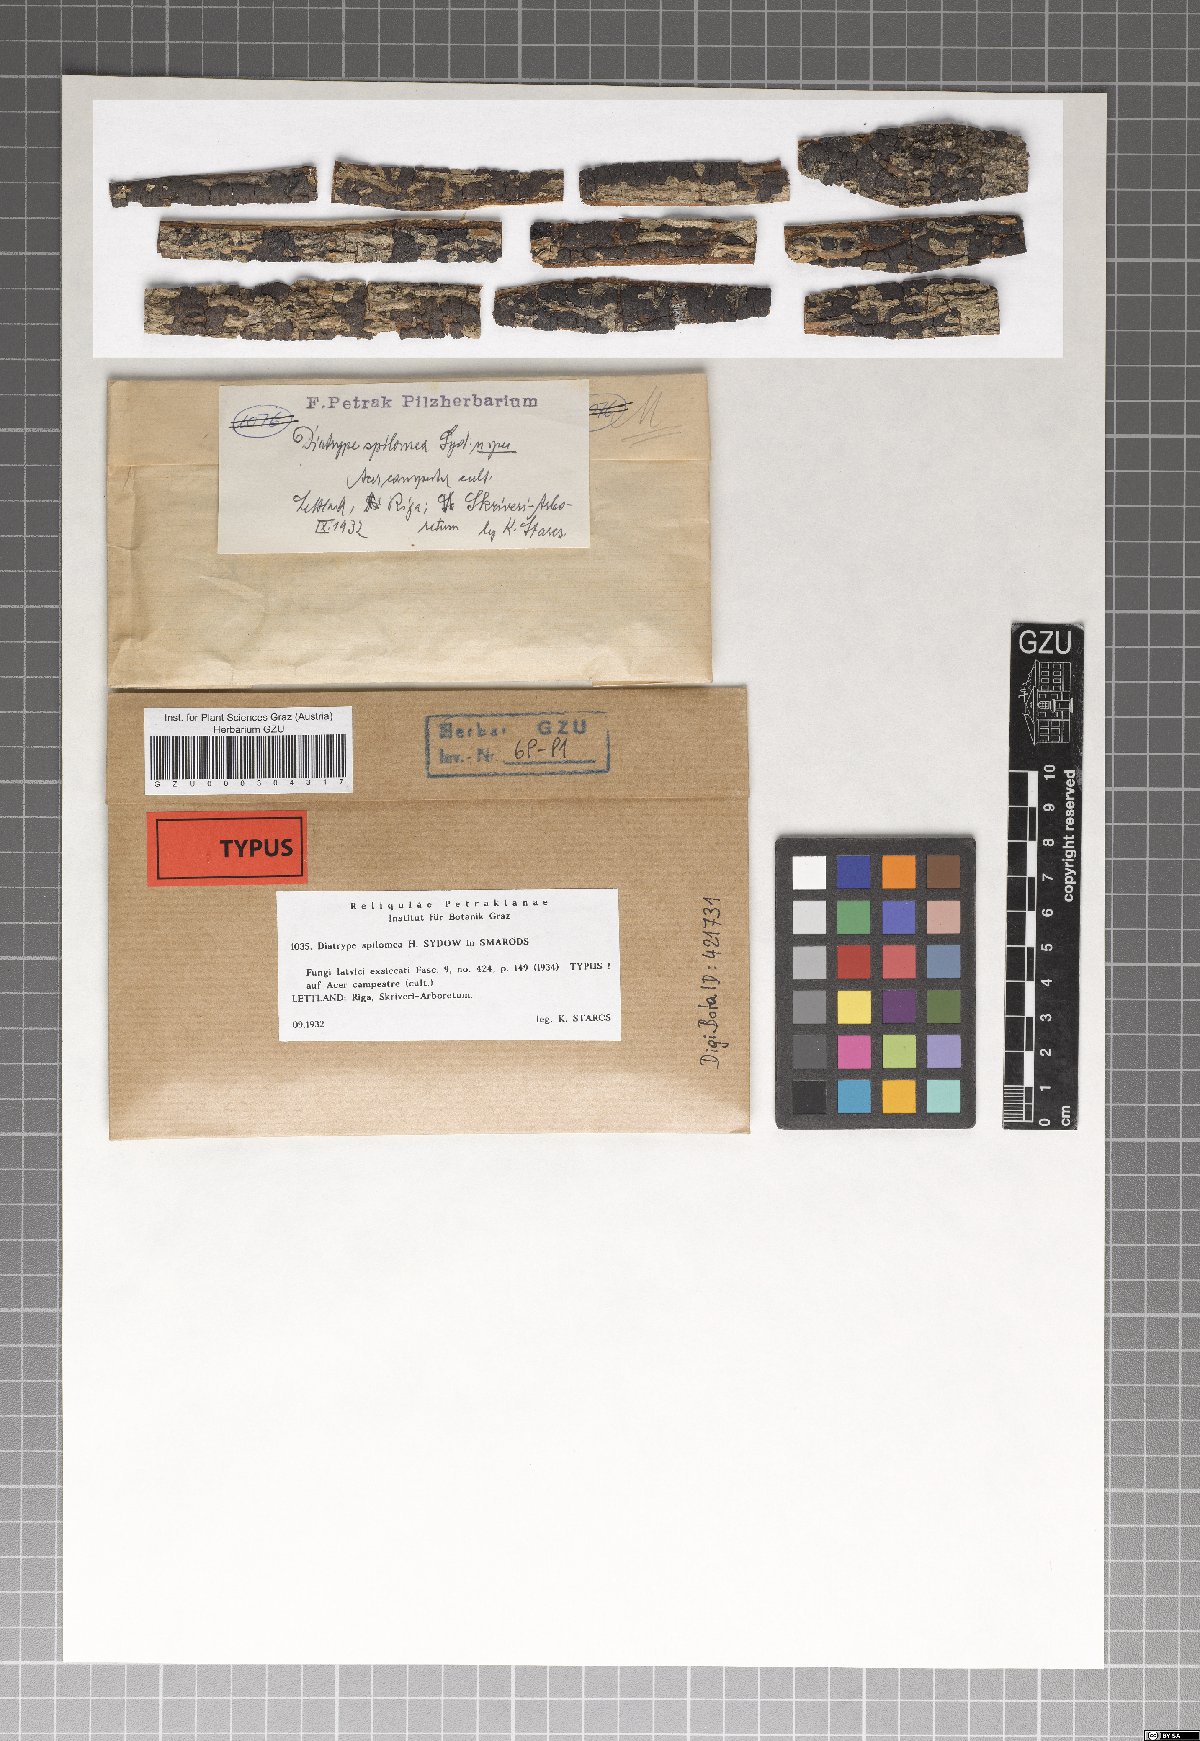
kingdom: Fungi
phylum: Ascomycota
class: Sordariomycetes
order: Xylariales
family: Diatrypaceae
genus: Diatrype
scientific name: Diatrype spilomea
